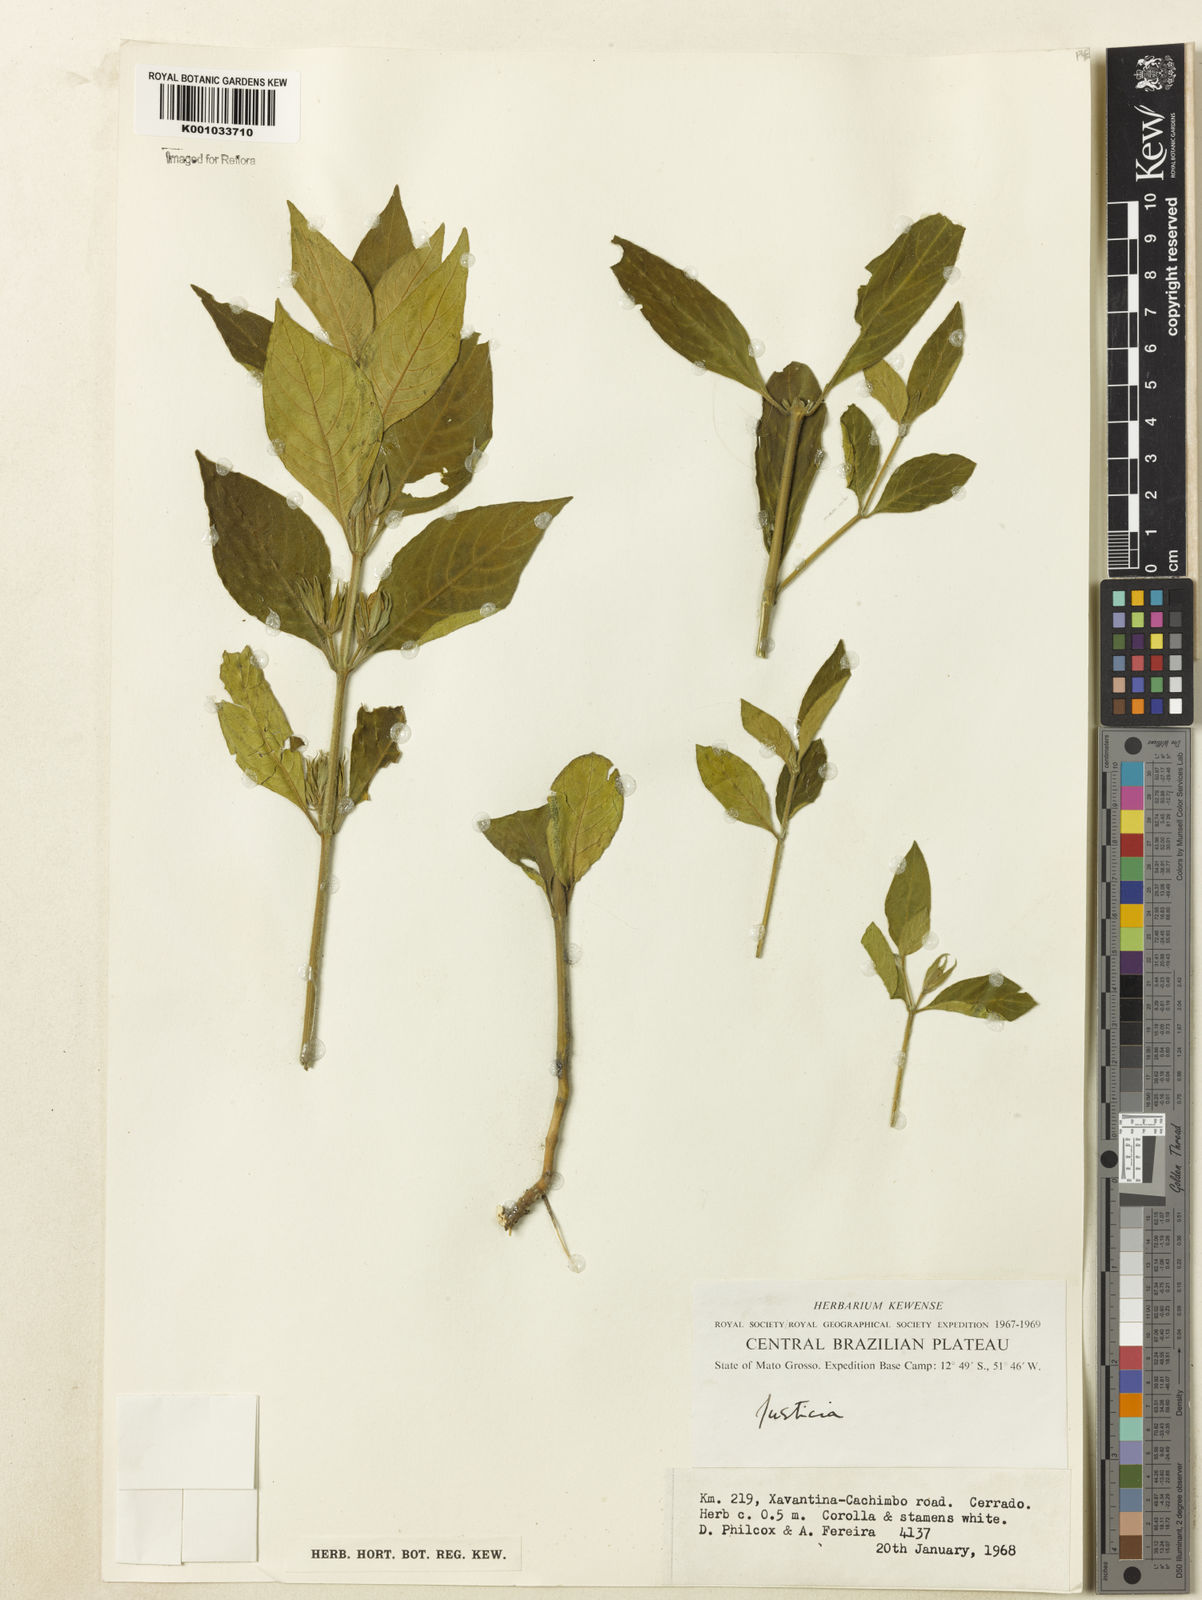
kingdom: Plantae
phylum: Tracheophyta
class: Magnoliopsida
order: Lamiales
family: Acanthaceae
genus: Justicia
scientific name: Justicia phyllocalyx
